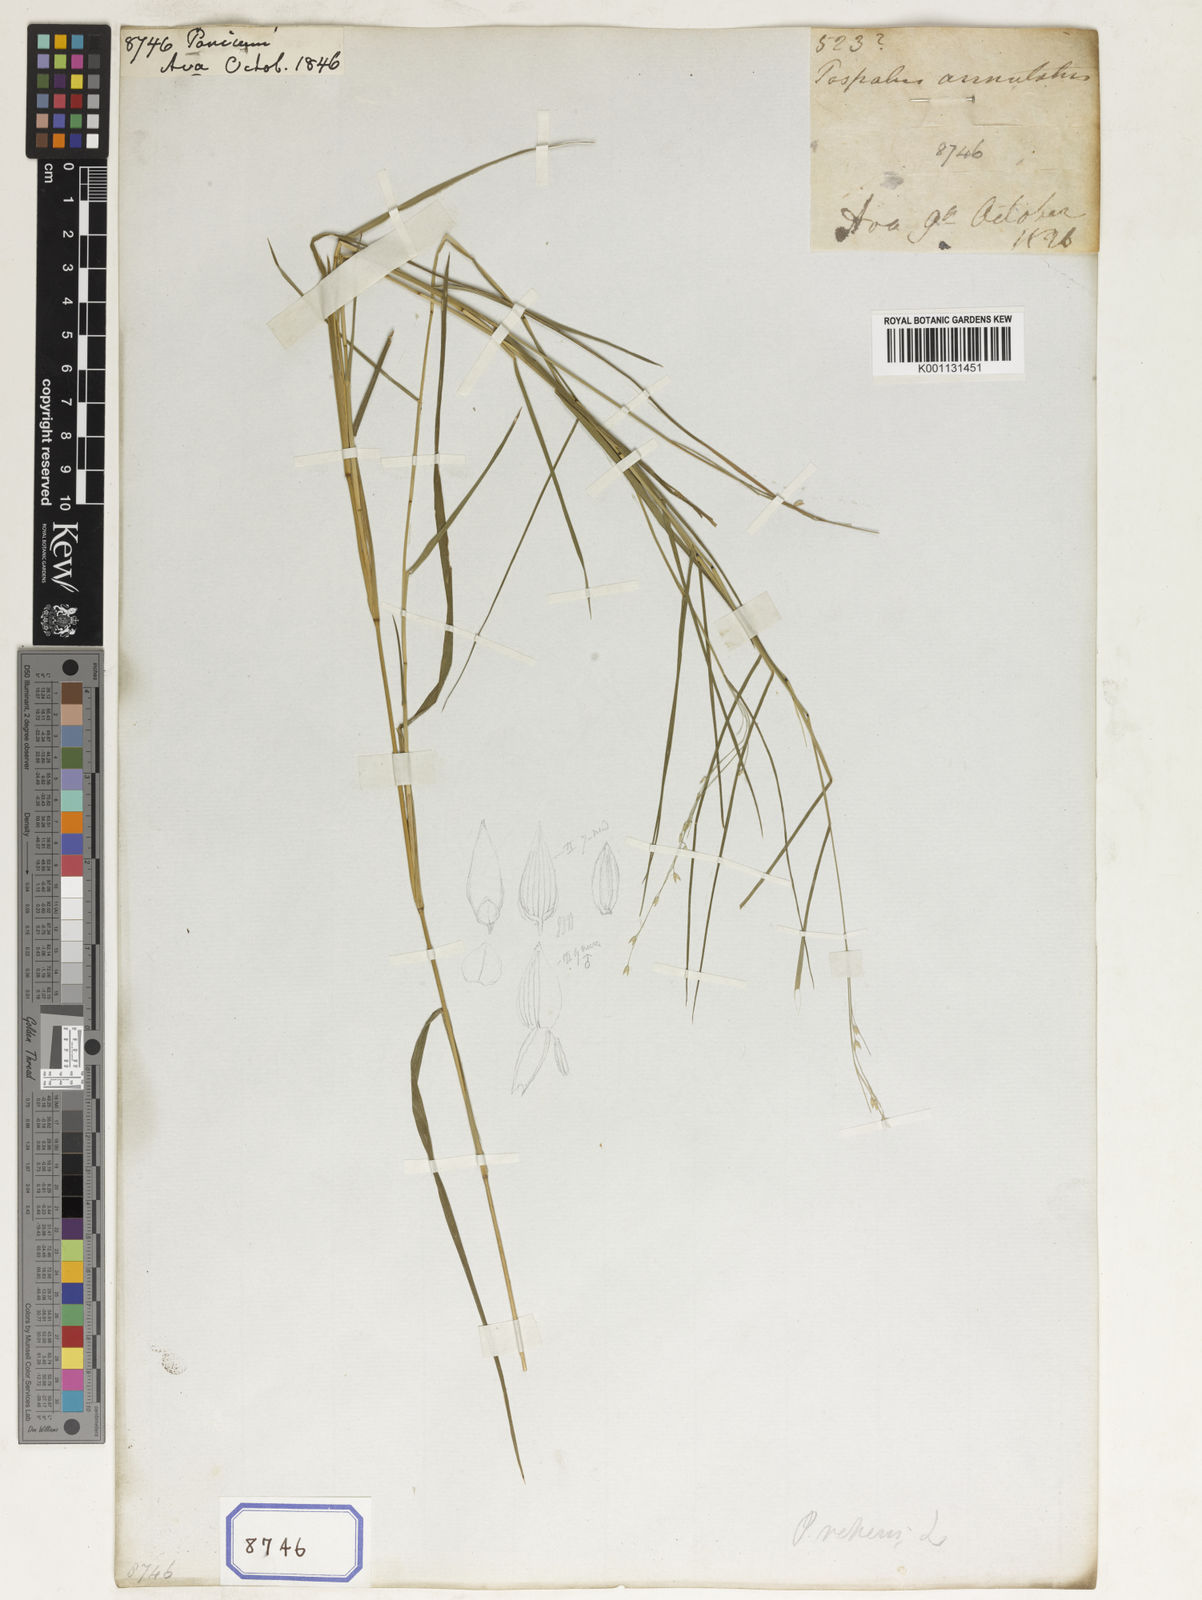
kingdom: Plantae
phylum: Tracheophyta
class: Liliopsida
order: Poales
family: Poaceae
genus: Panicum
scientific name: Panicum
